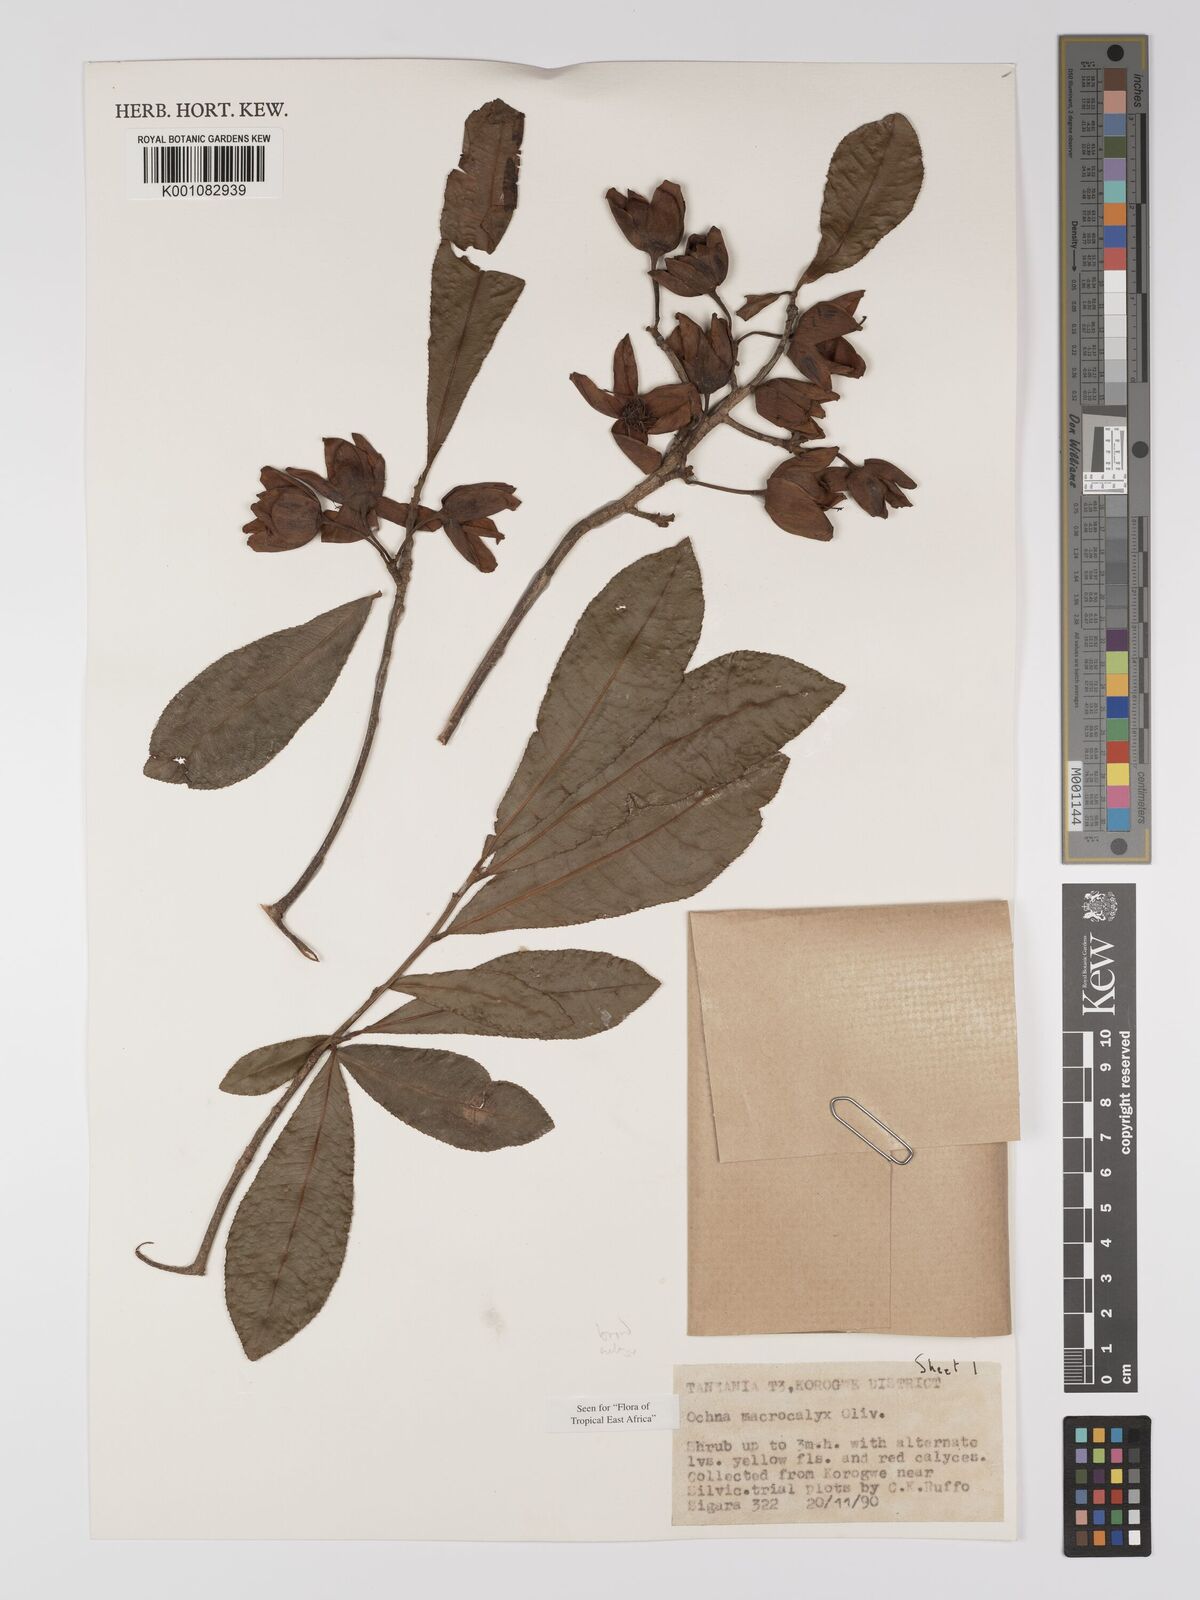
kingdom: Plantae
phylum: Tracheophyta
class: Magnoliopsida
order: Malpighiales
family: Ochnaceae
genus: Ochna
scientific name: Ochna macrocalyx
